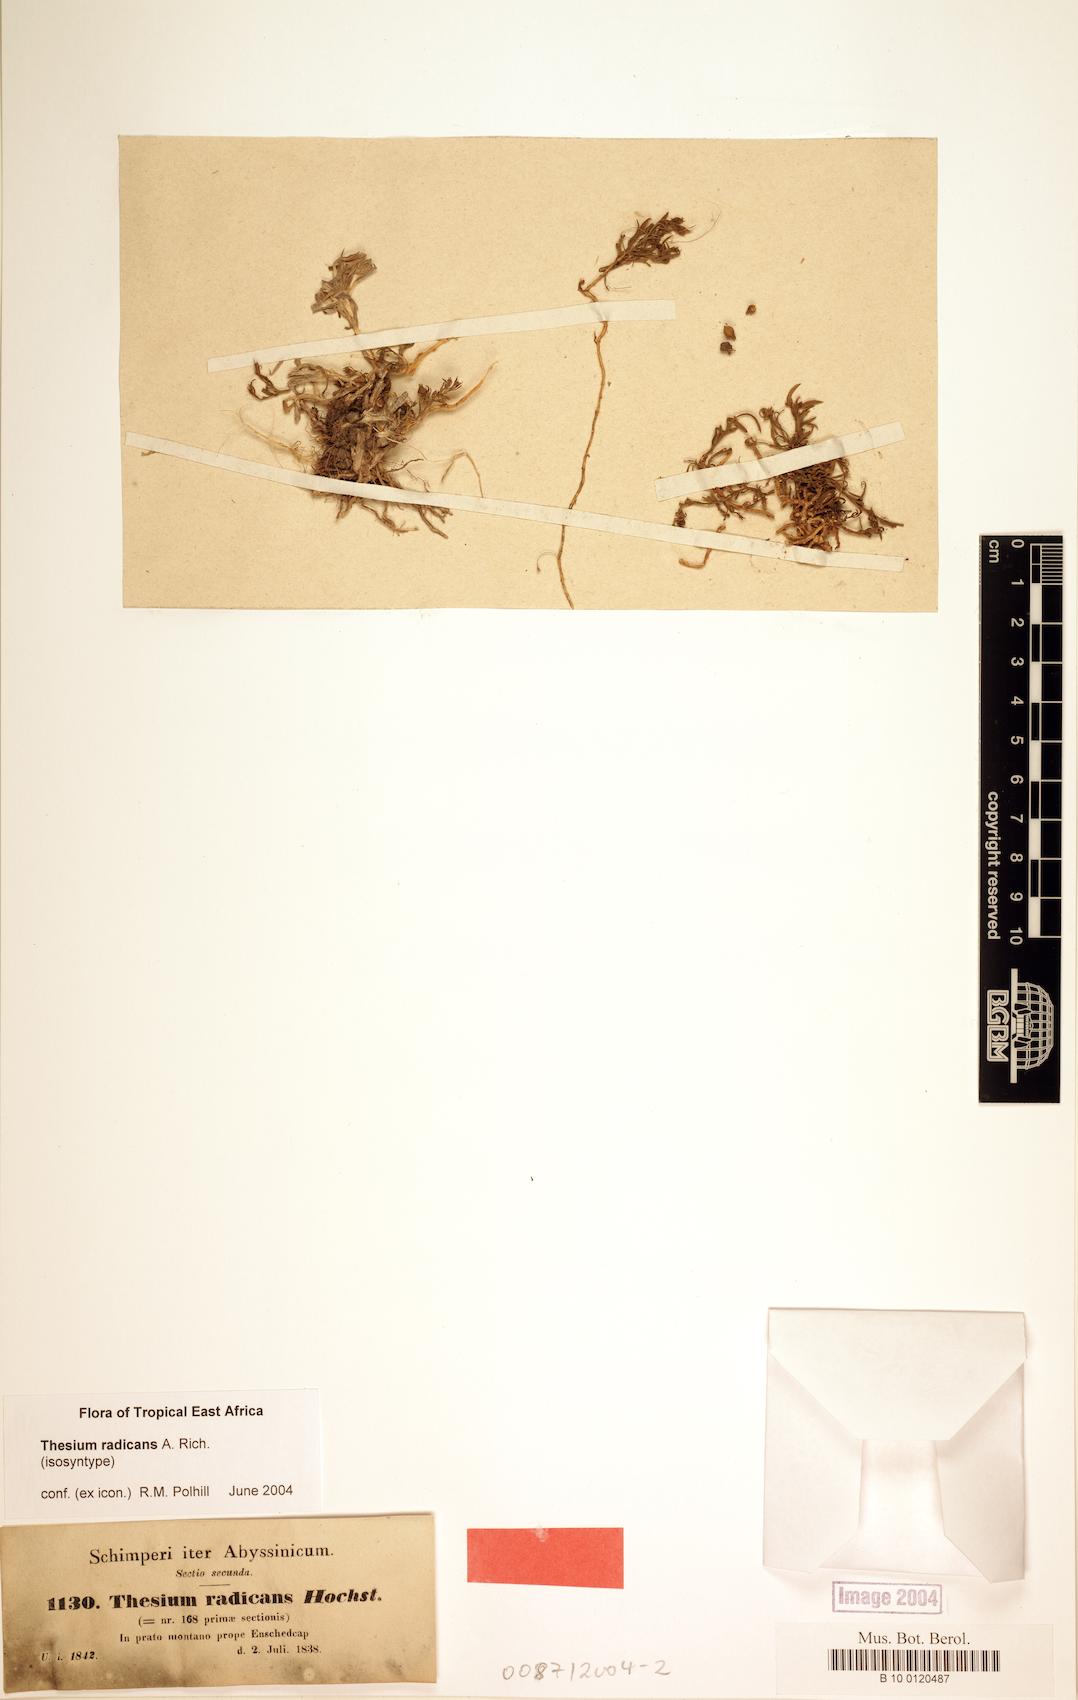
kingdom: Plantae
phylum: Tracheophyta
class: Magnoliopsida
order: Santalales
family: Thesiaceae
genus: Thesium
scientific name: Thesium radicans
